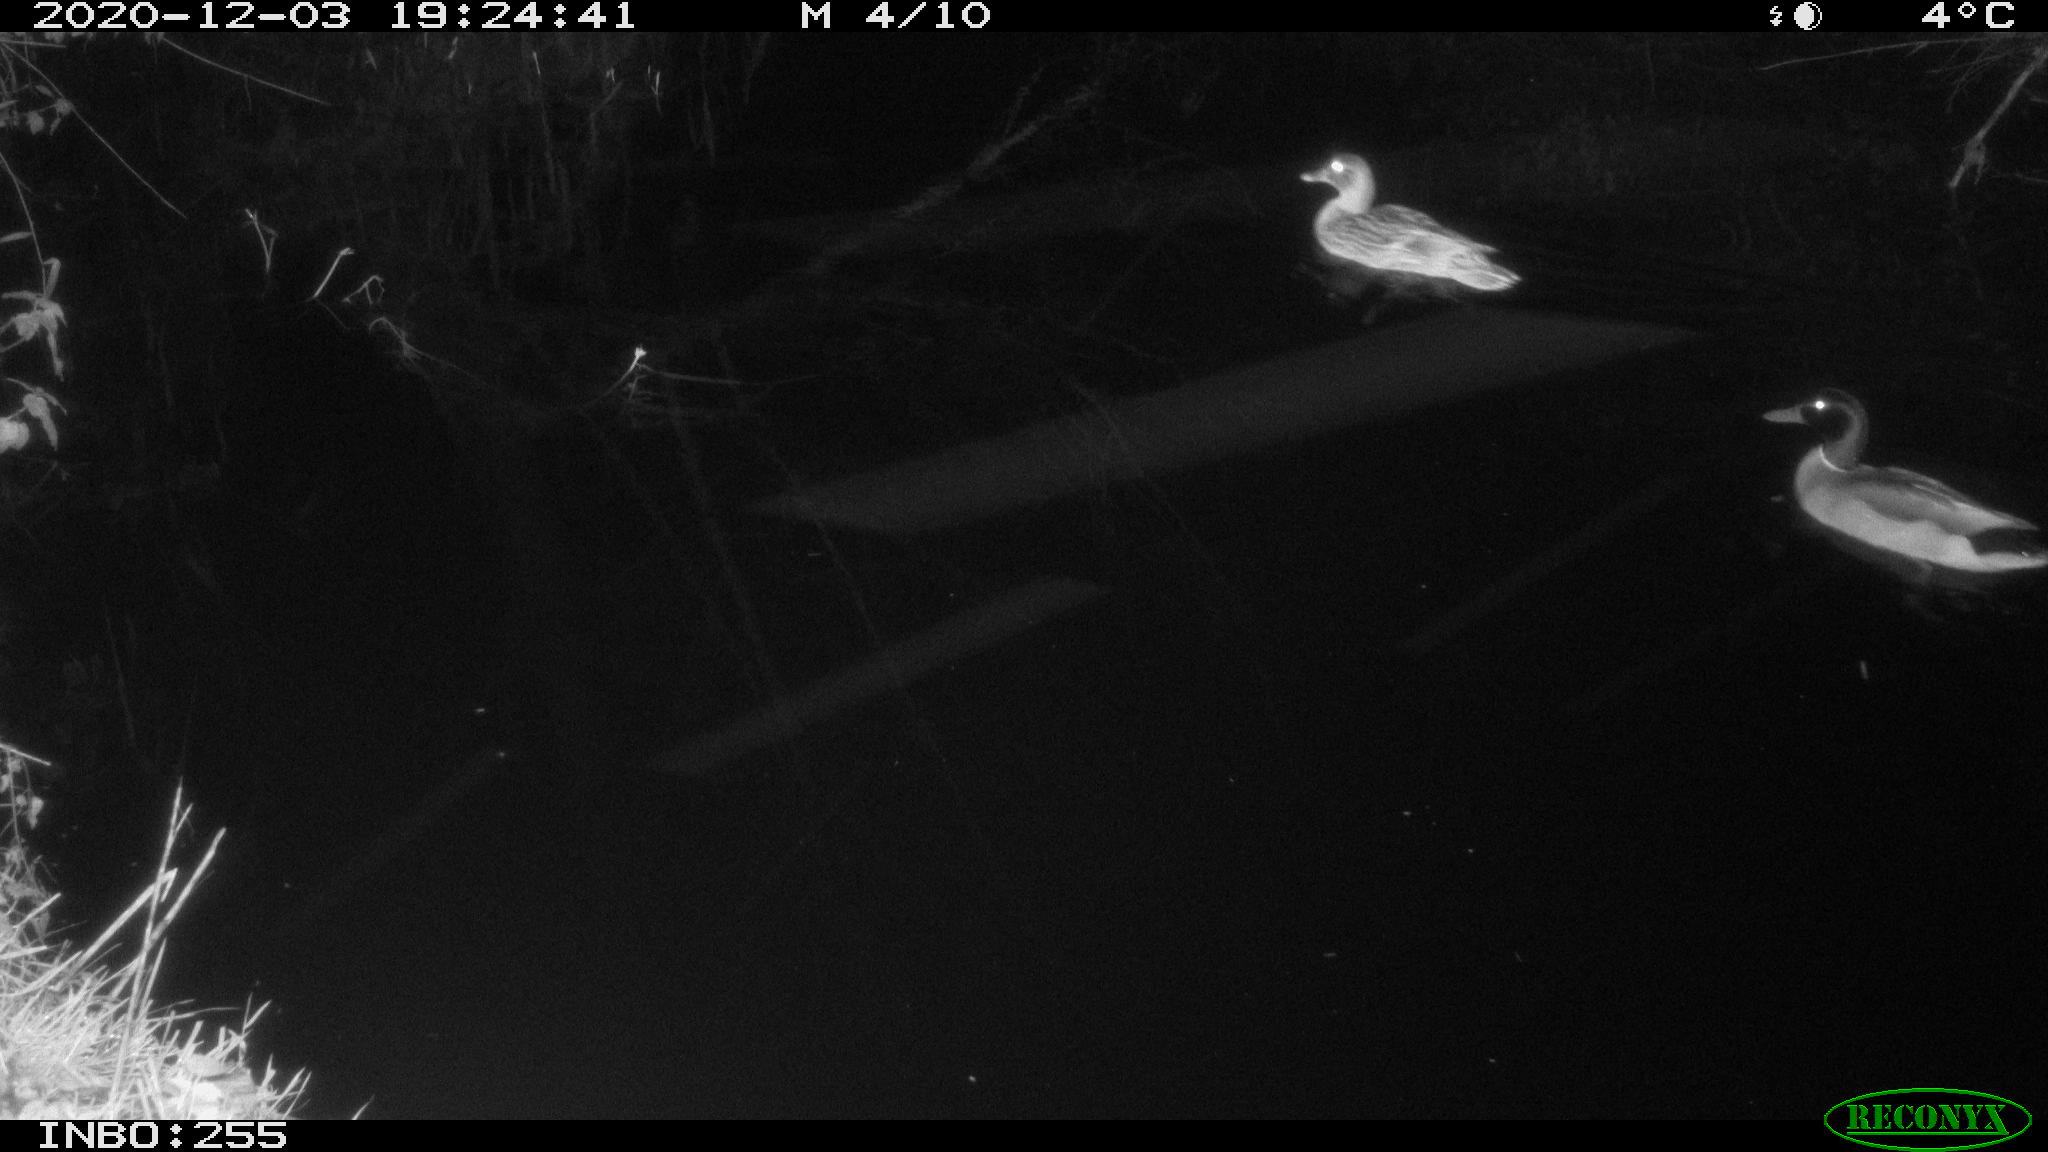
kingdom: Animalia
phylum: Chordata
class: Aves
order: Anseriformes
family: Anatidae
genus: Anas
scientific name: Anas platyrhynchos
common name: Mallard
